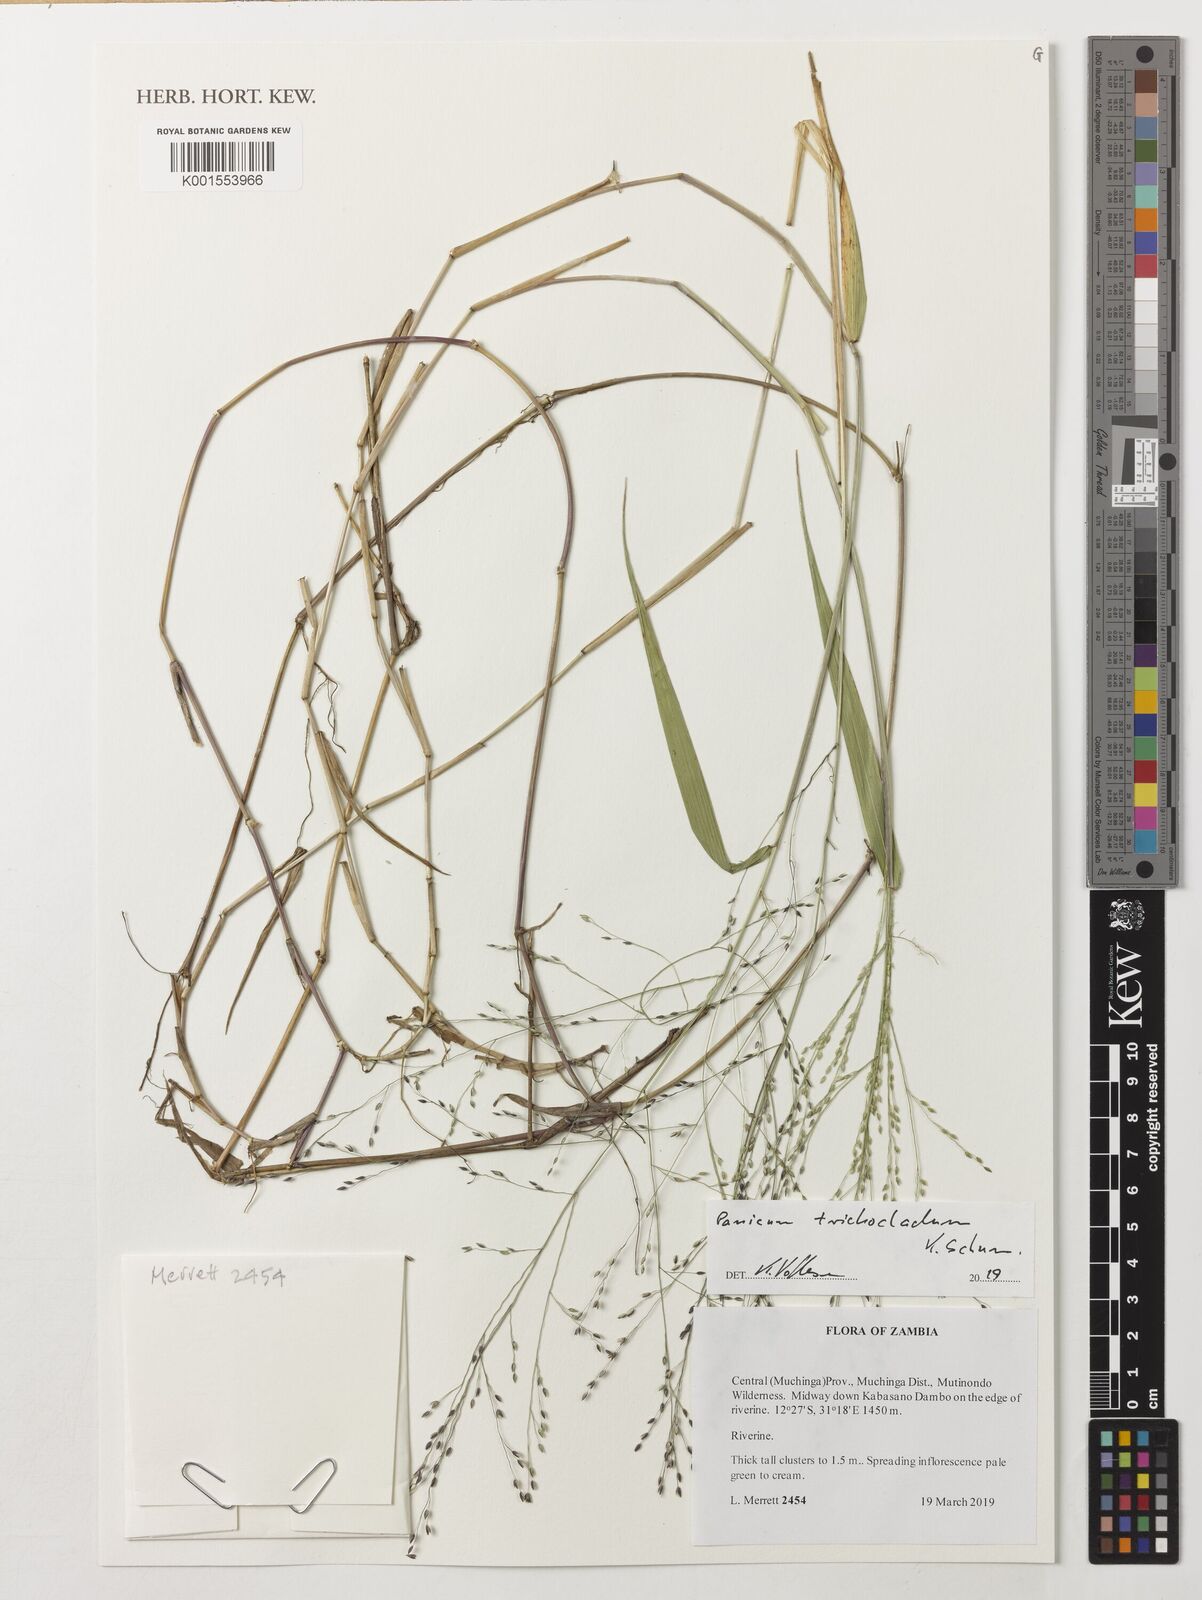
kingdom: Plantae
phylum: Tracheophyta
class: Liliopsida
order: Poales
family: Poaceae
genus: Ocellochloa
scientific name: Ocellochloa stolonifera
